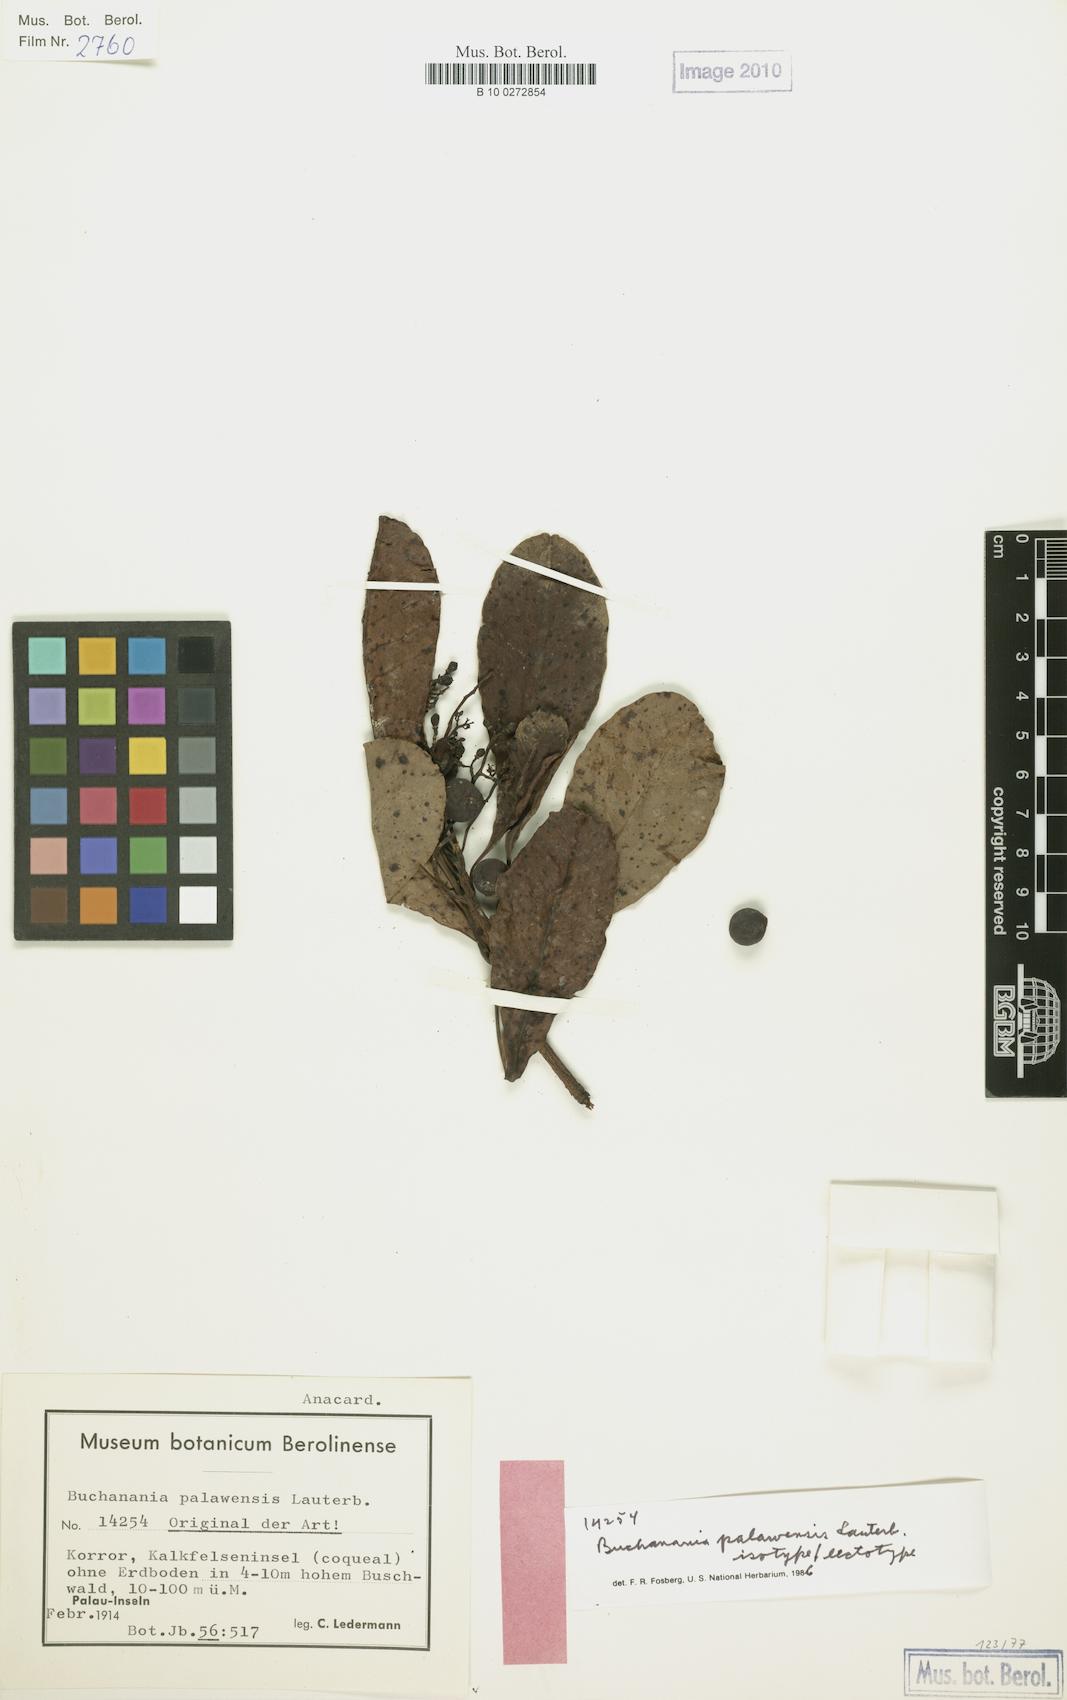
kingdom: Plantae
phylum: Tracheophyta
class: Magnoliopsida
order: Sapindales
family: Anacardiaceae
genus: Buchanania
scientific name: Buchanania palawensis
